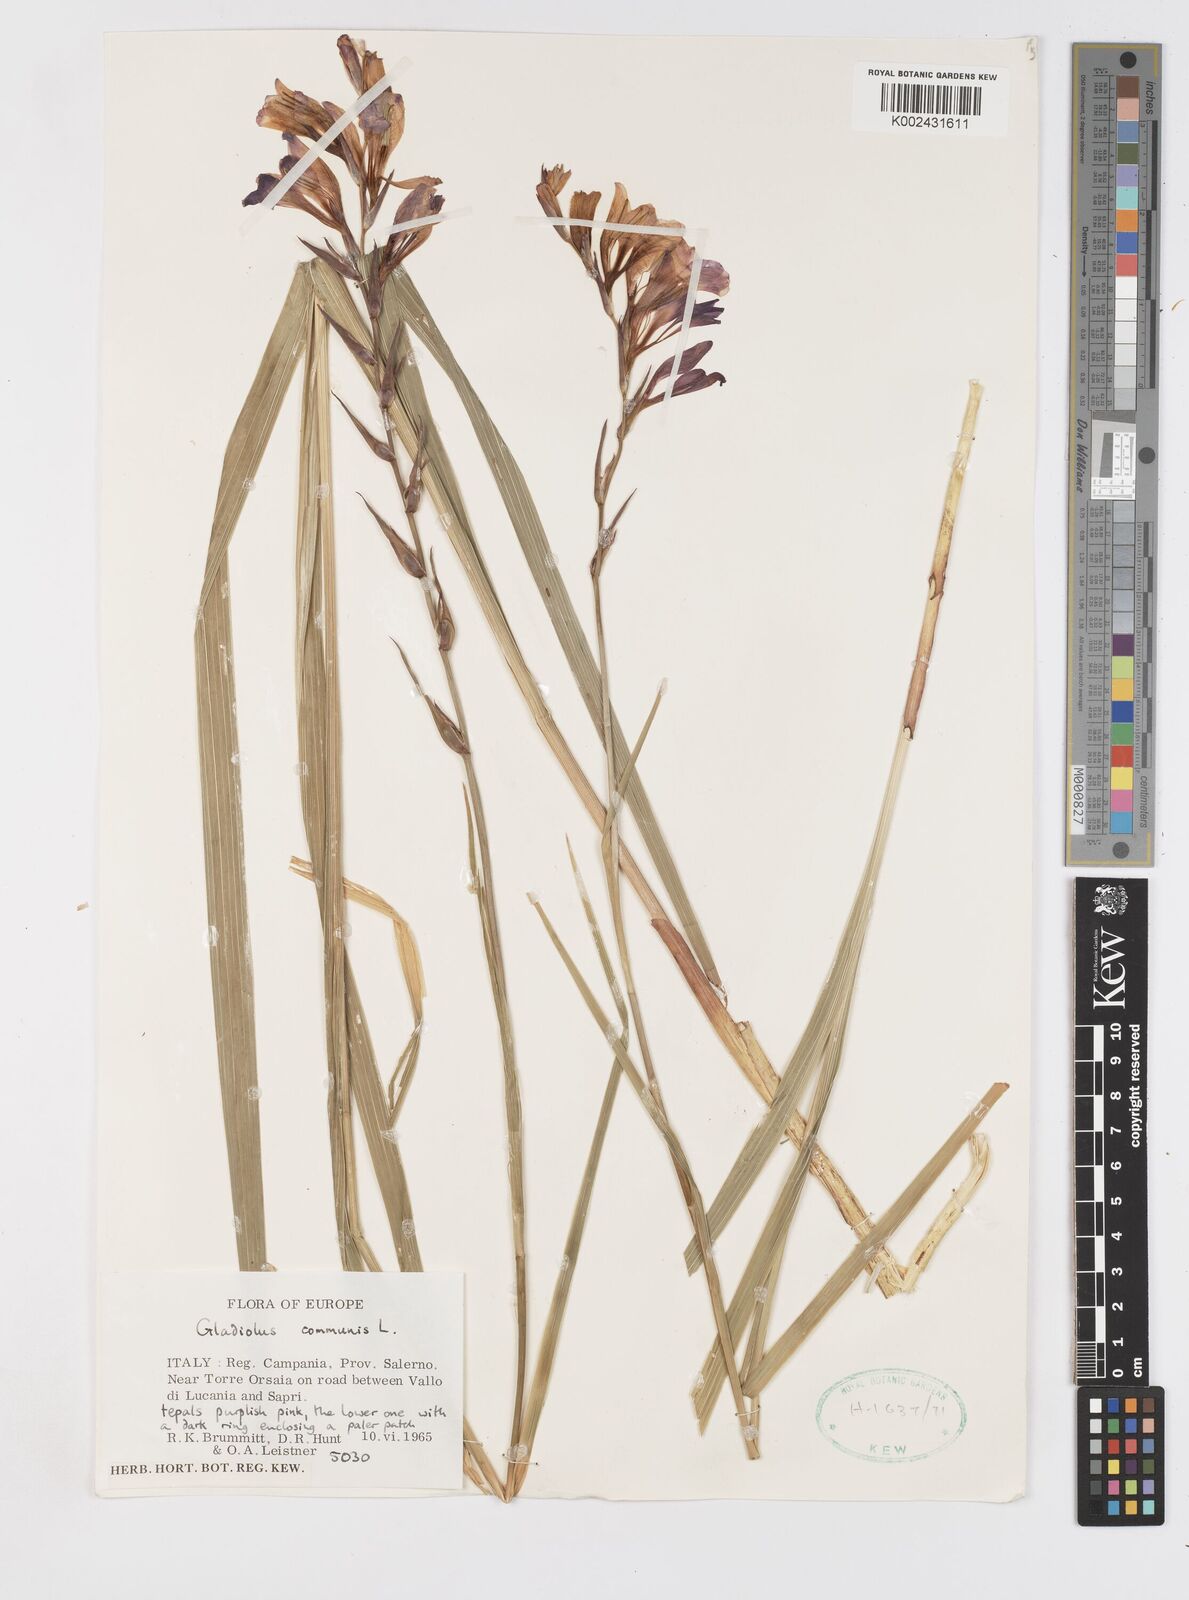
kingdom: Plantae
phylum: Tracheophyta
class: Liliopsida
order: Asparagales
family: Iridaceae
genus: Gladiolus
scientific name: Gladiolus communis
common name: Eastern gladiolus
